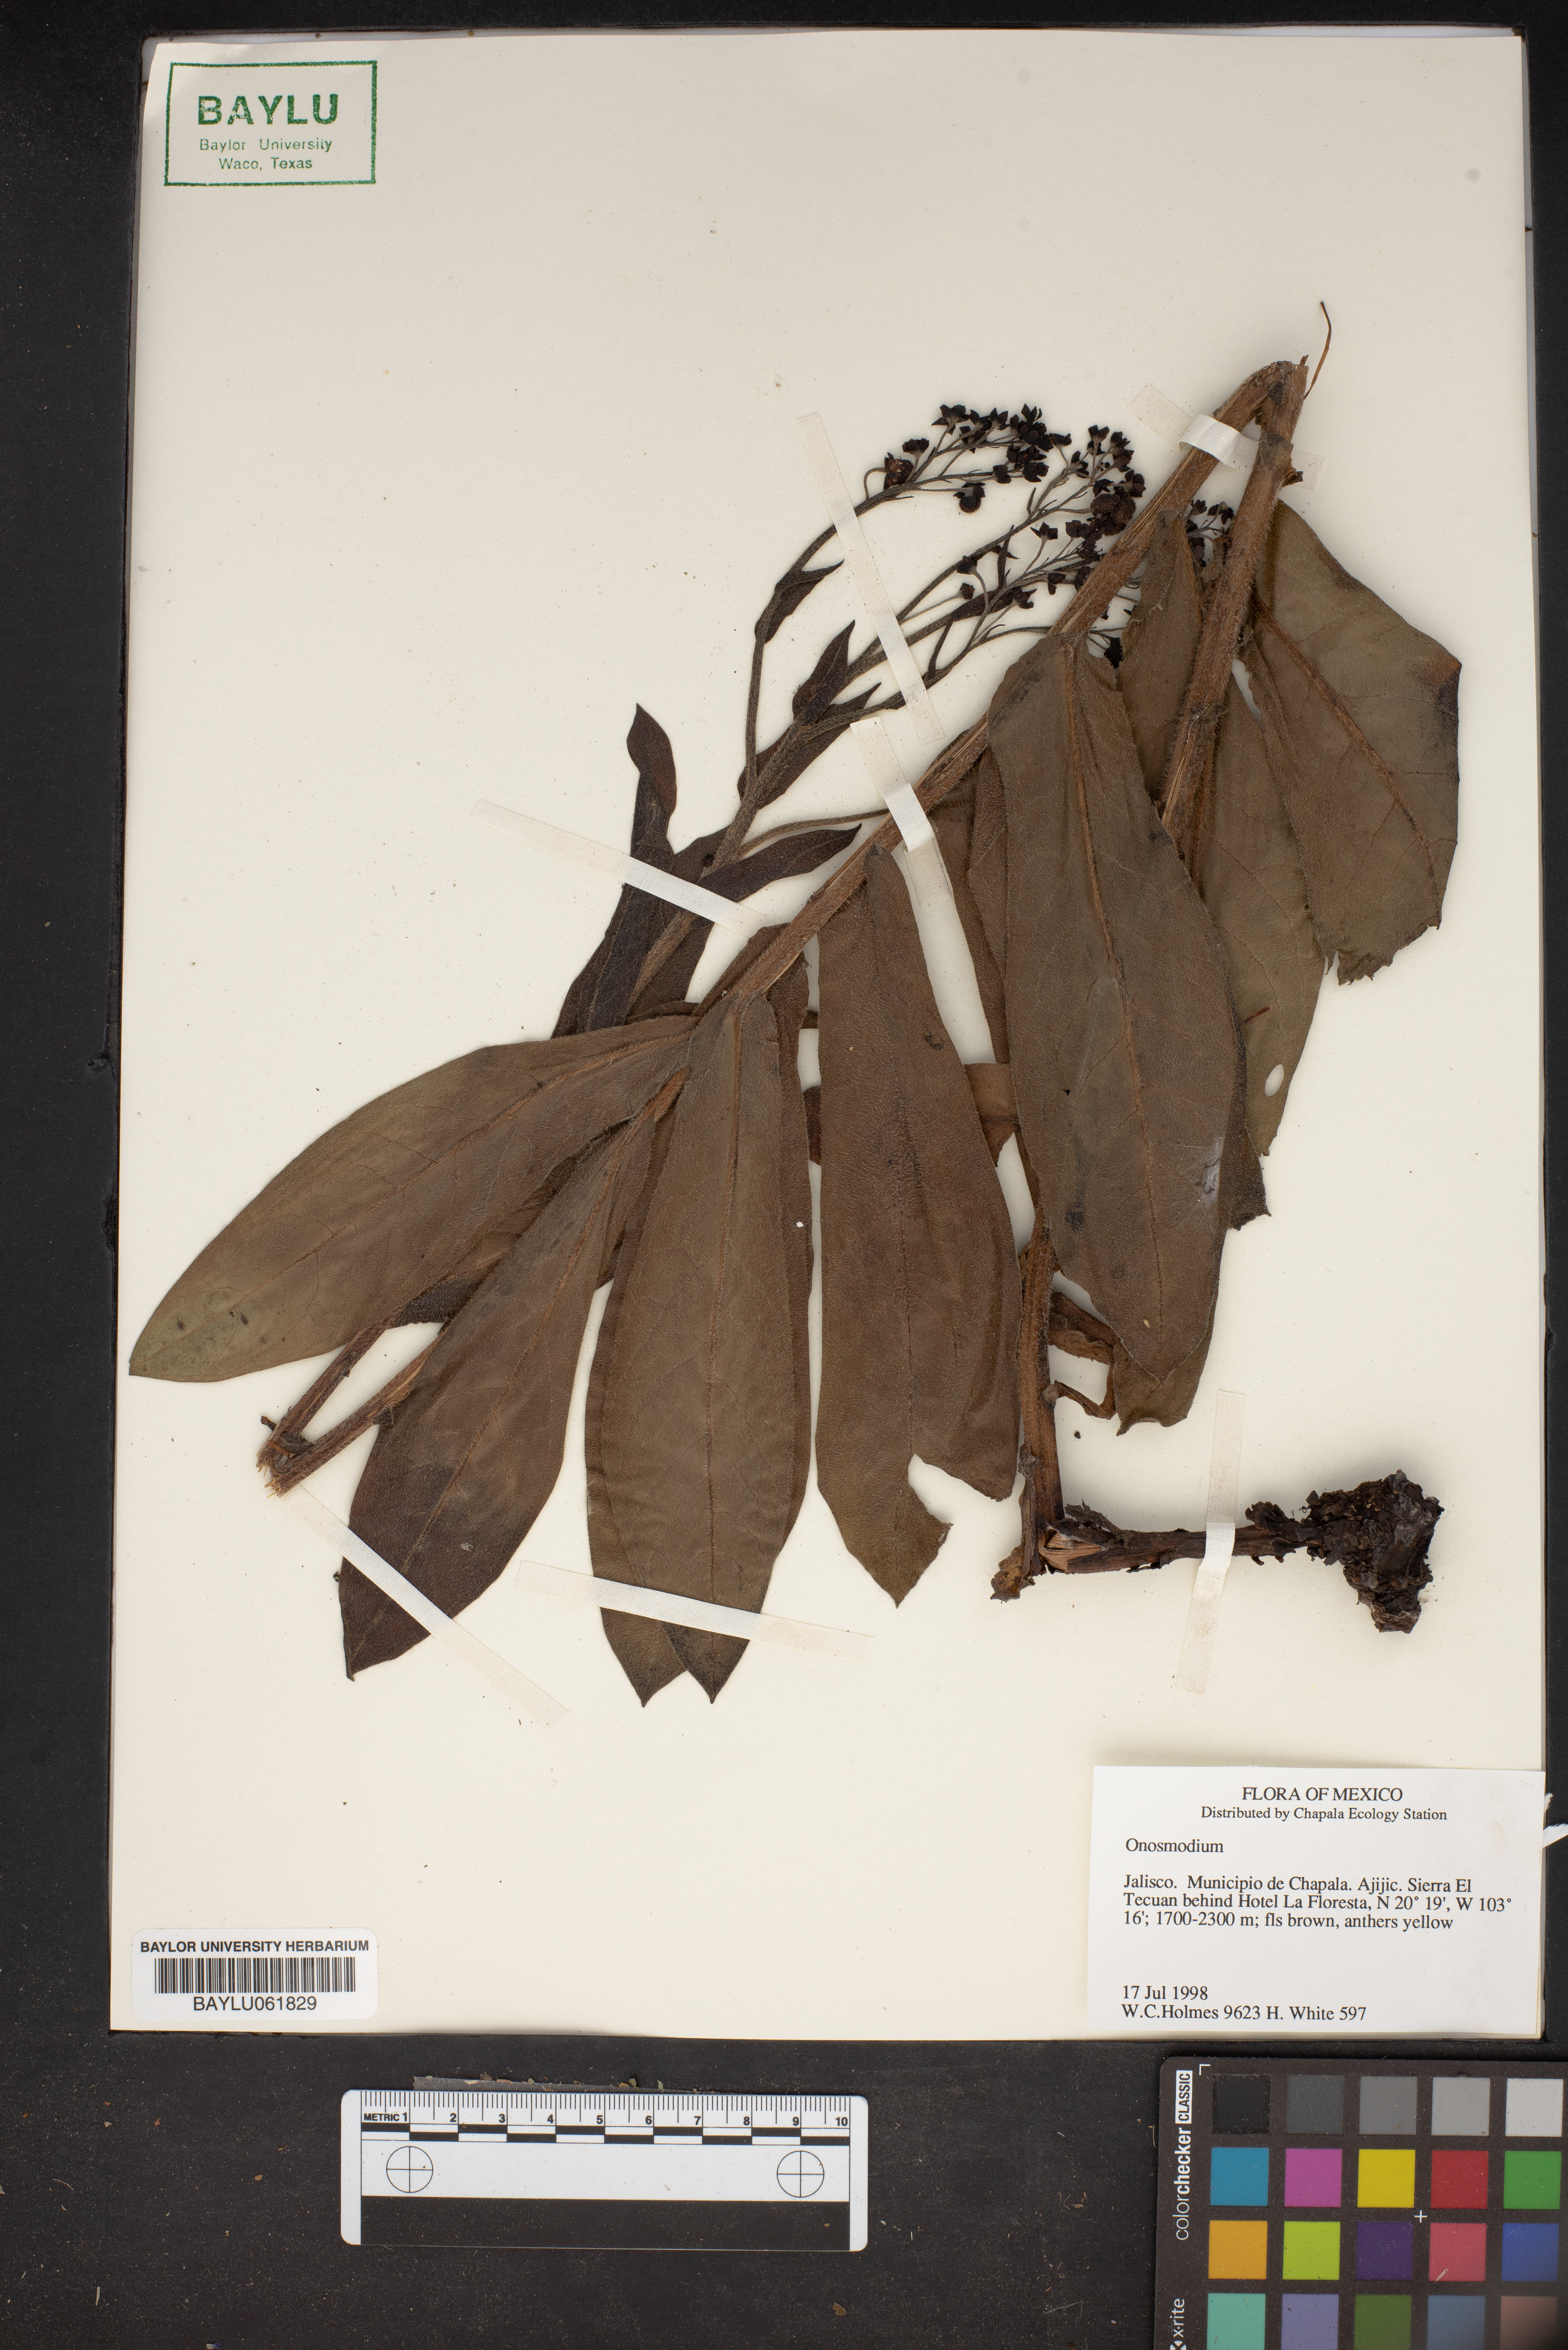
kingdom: Plantae
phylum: Tracheophyta
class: Magnoliopsida
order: Boraginales
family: Boraginaceae
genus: Lithospermum
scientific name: Lithospermum
